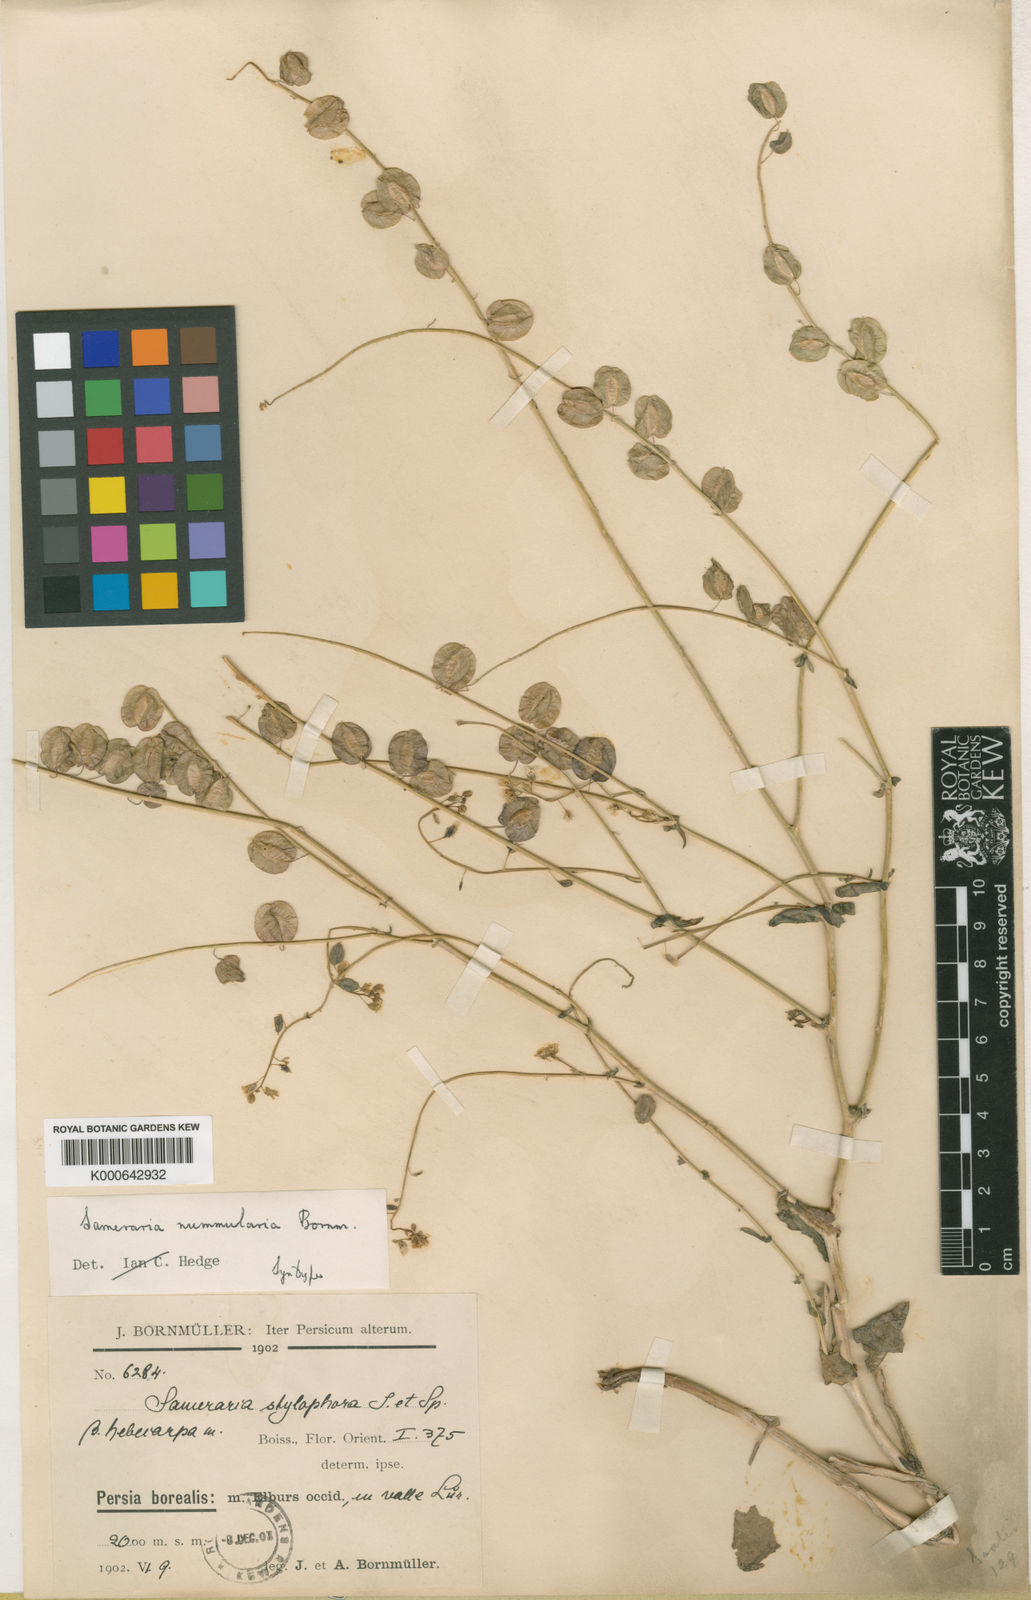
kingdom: Plantae
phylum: Tracheophyta
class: Magnoliopsida
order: Brassicales
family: Brassicaceae
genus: Isatis
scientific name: Isatis zarrei
